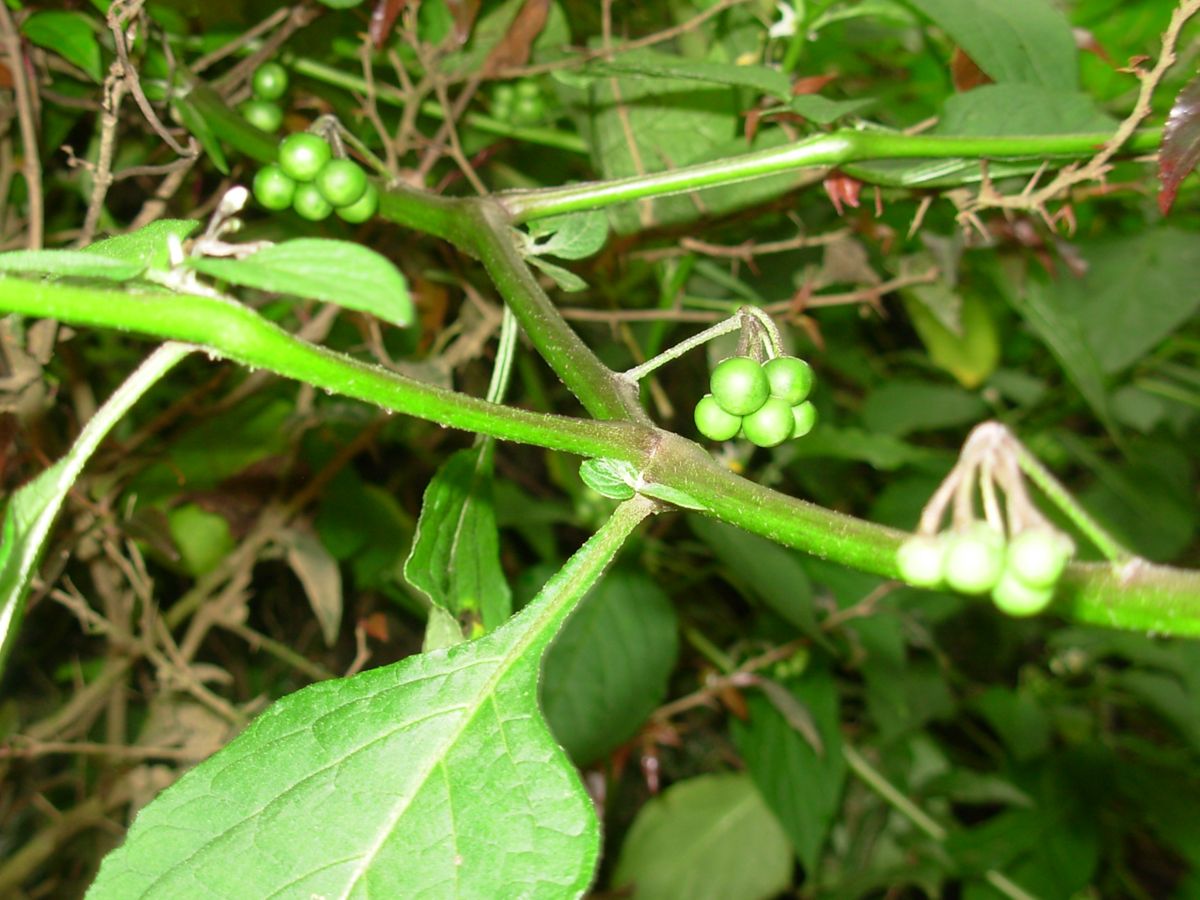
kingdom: Plantae
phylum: Tracheophyta
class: Magnoliopsida
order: Solanales
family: Solanaceae
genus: Solanum
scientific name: Solanum nigrescens
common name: Divine nightshade
